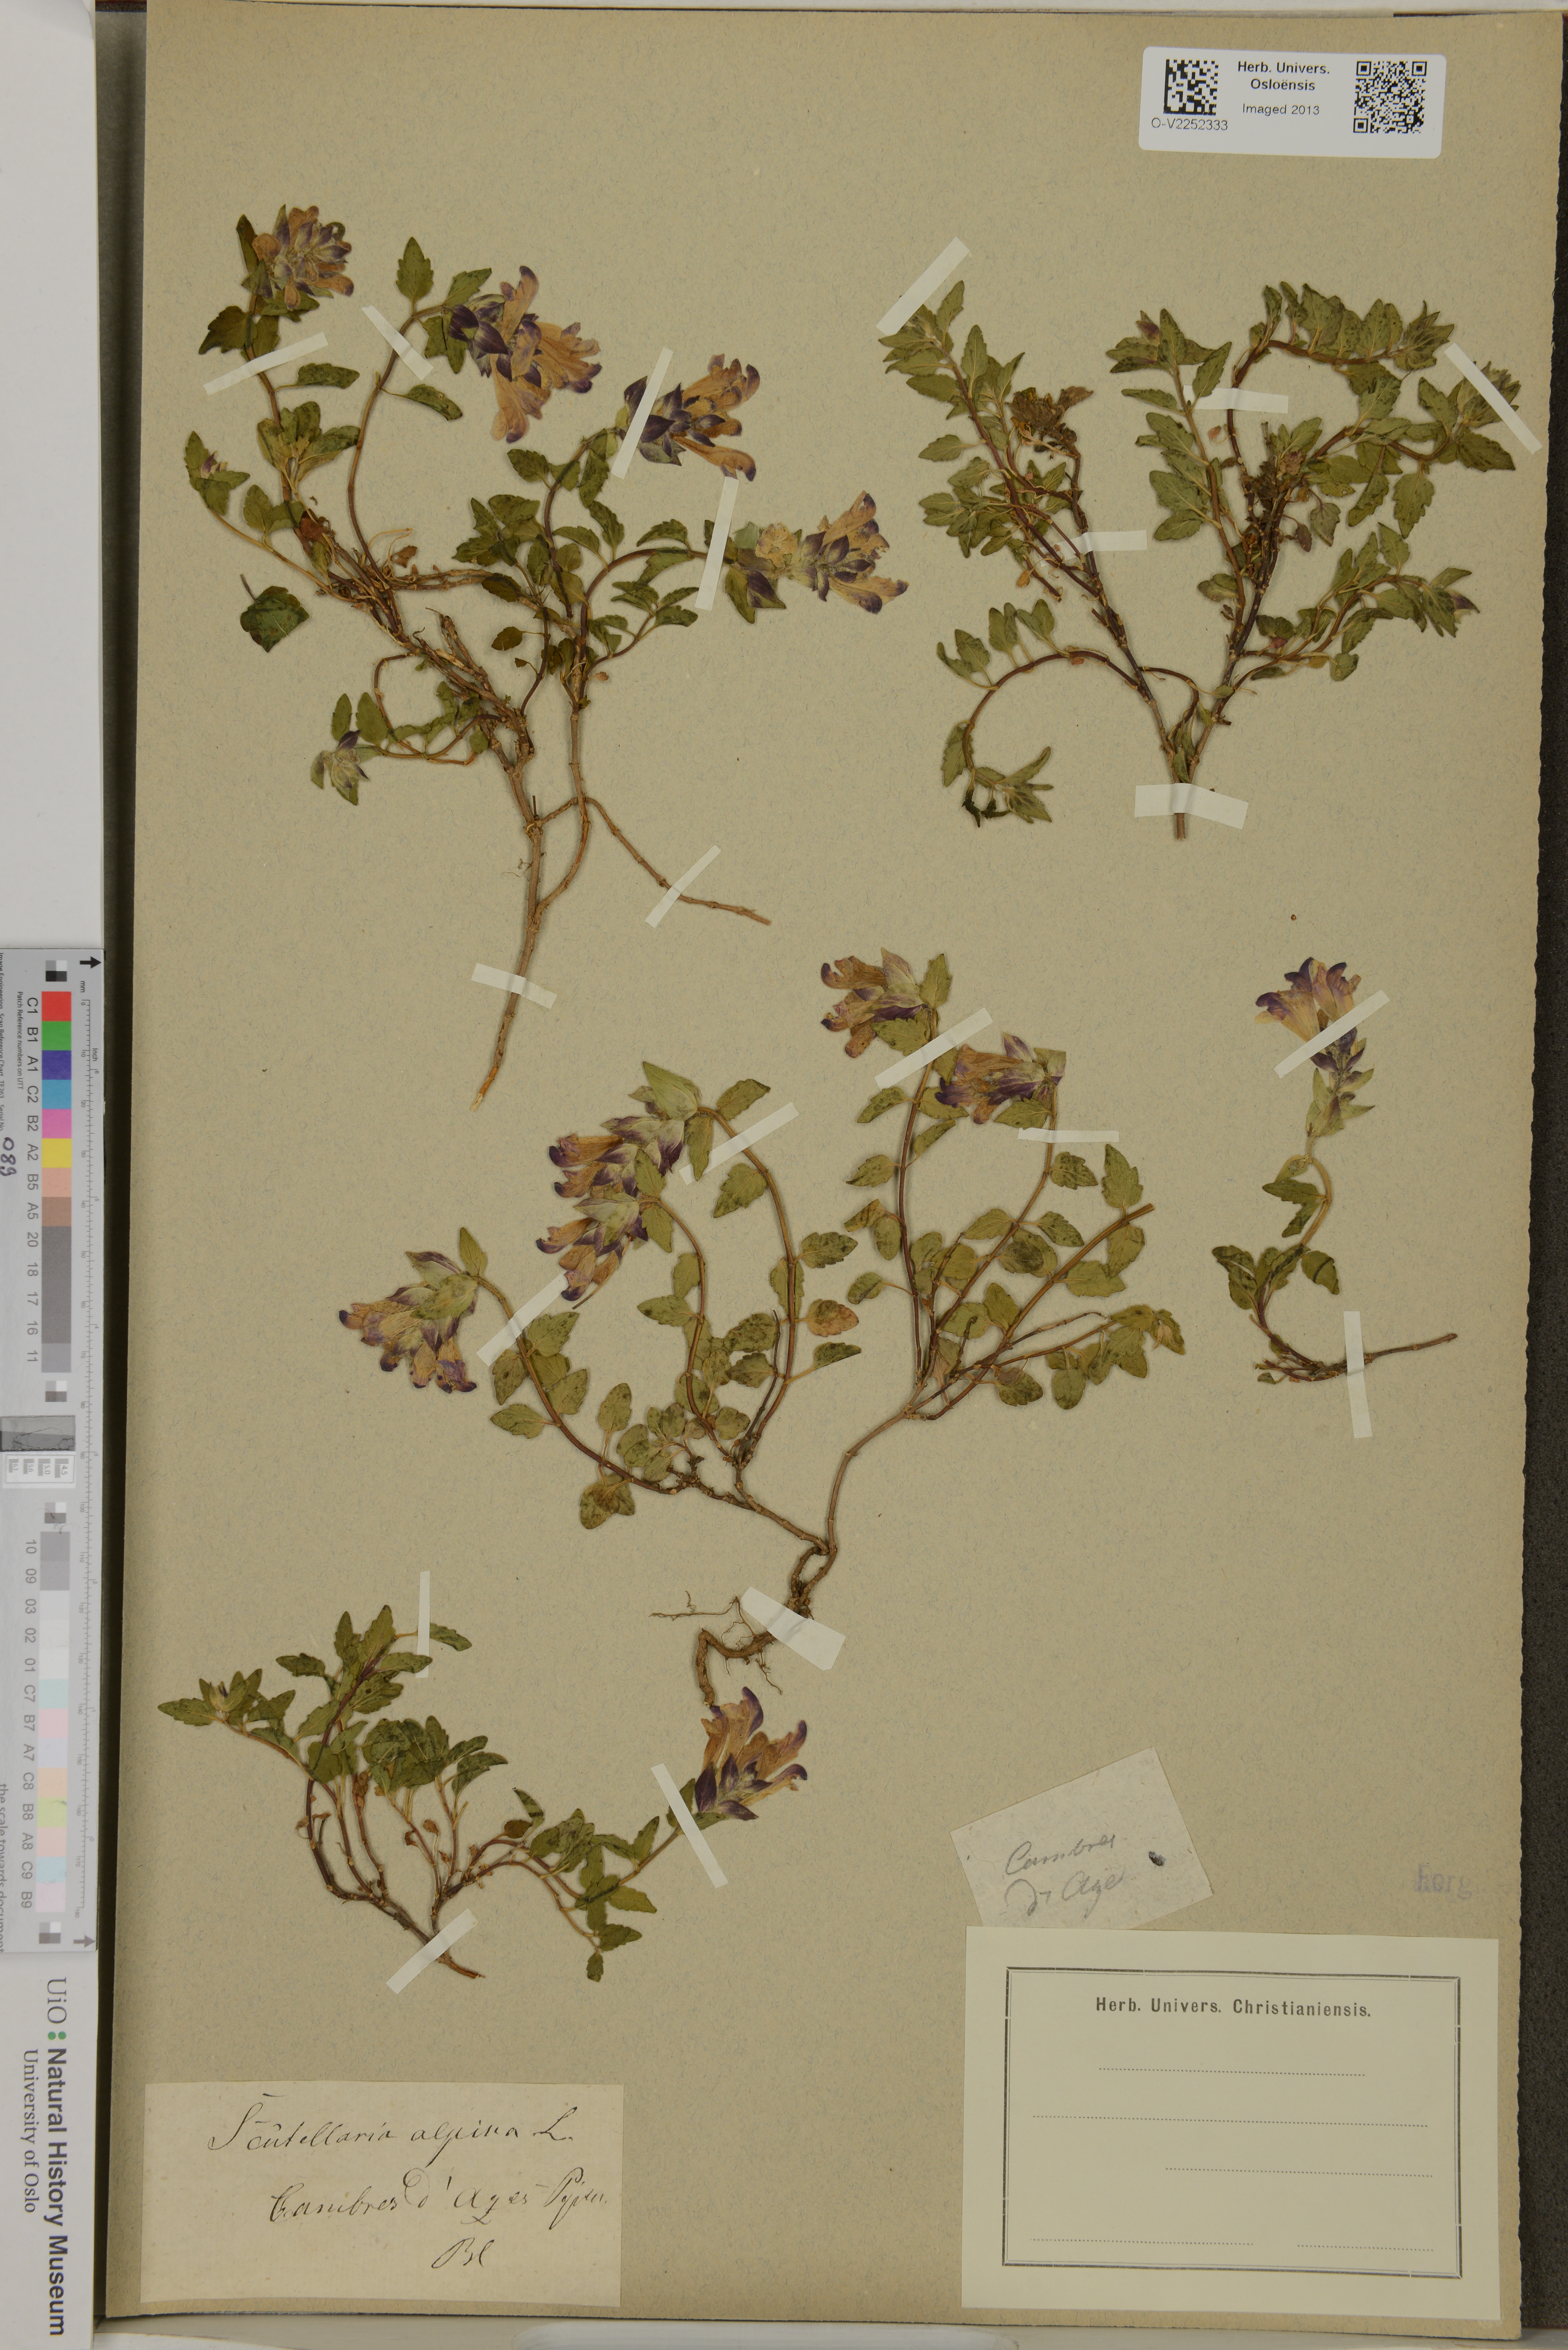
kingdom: Plantae
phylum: Tracheophyta
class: Magnoliopsida
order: Lamiales
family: Lamiaceae
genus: Scutellaria
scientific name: Scutellaria alpina
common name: Alpine scullcap
